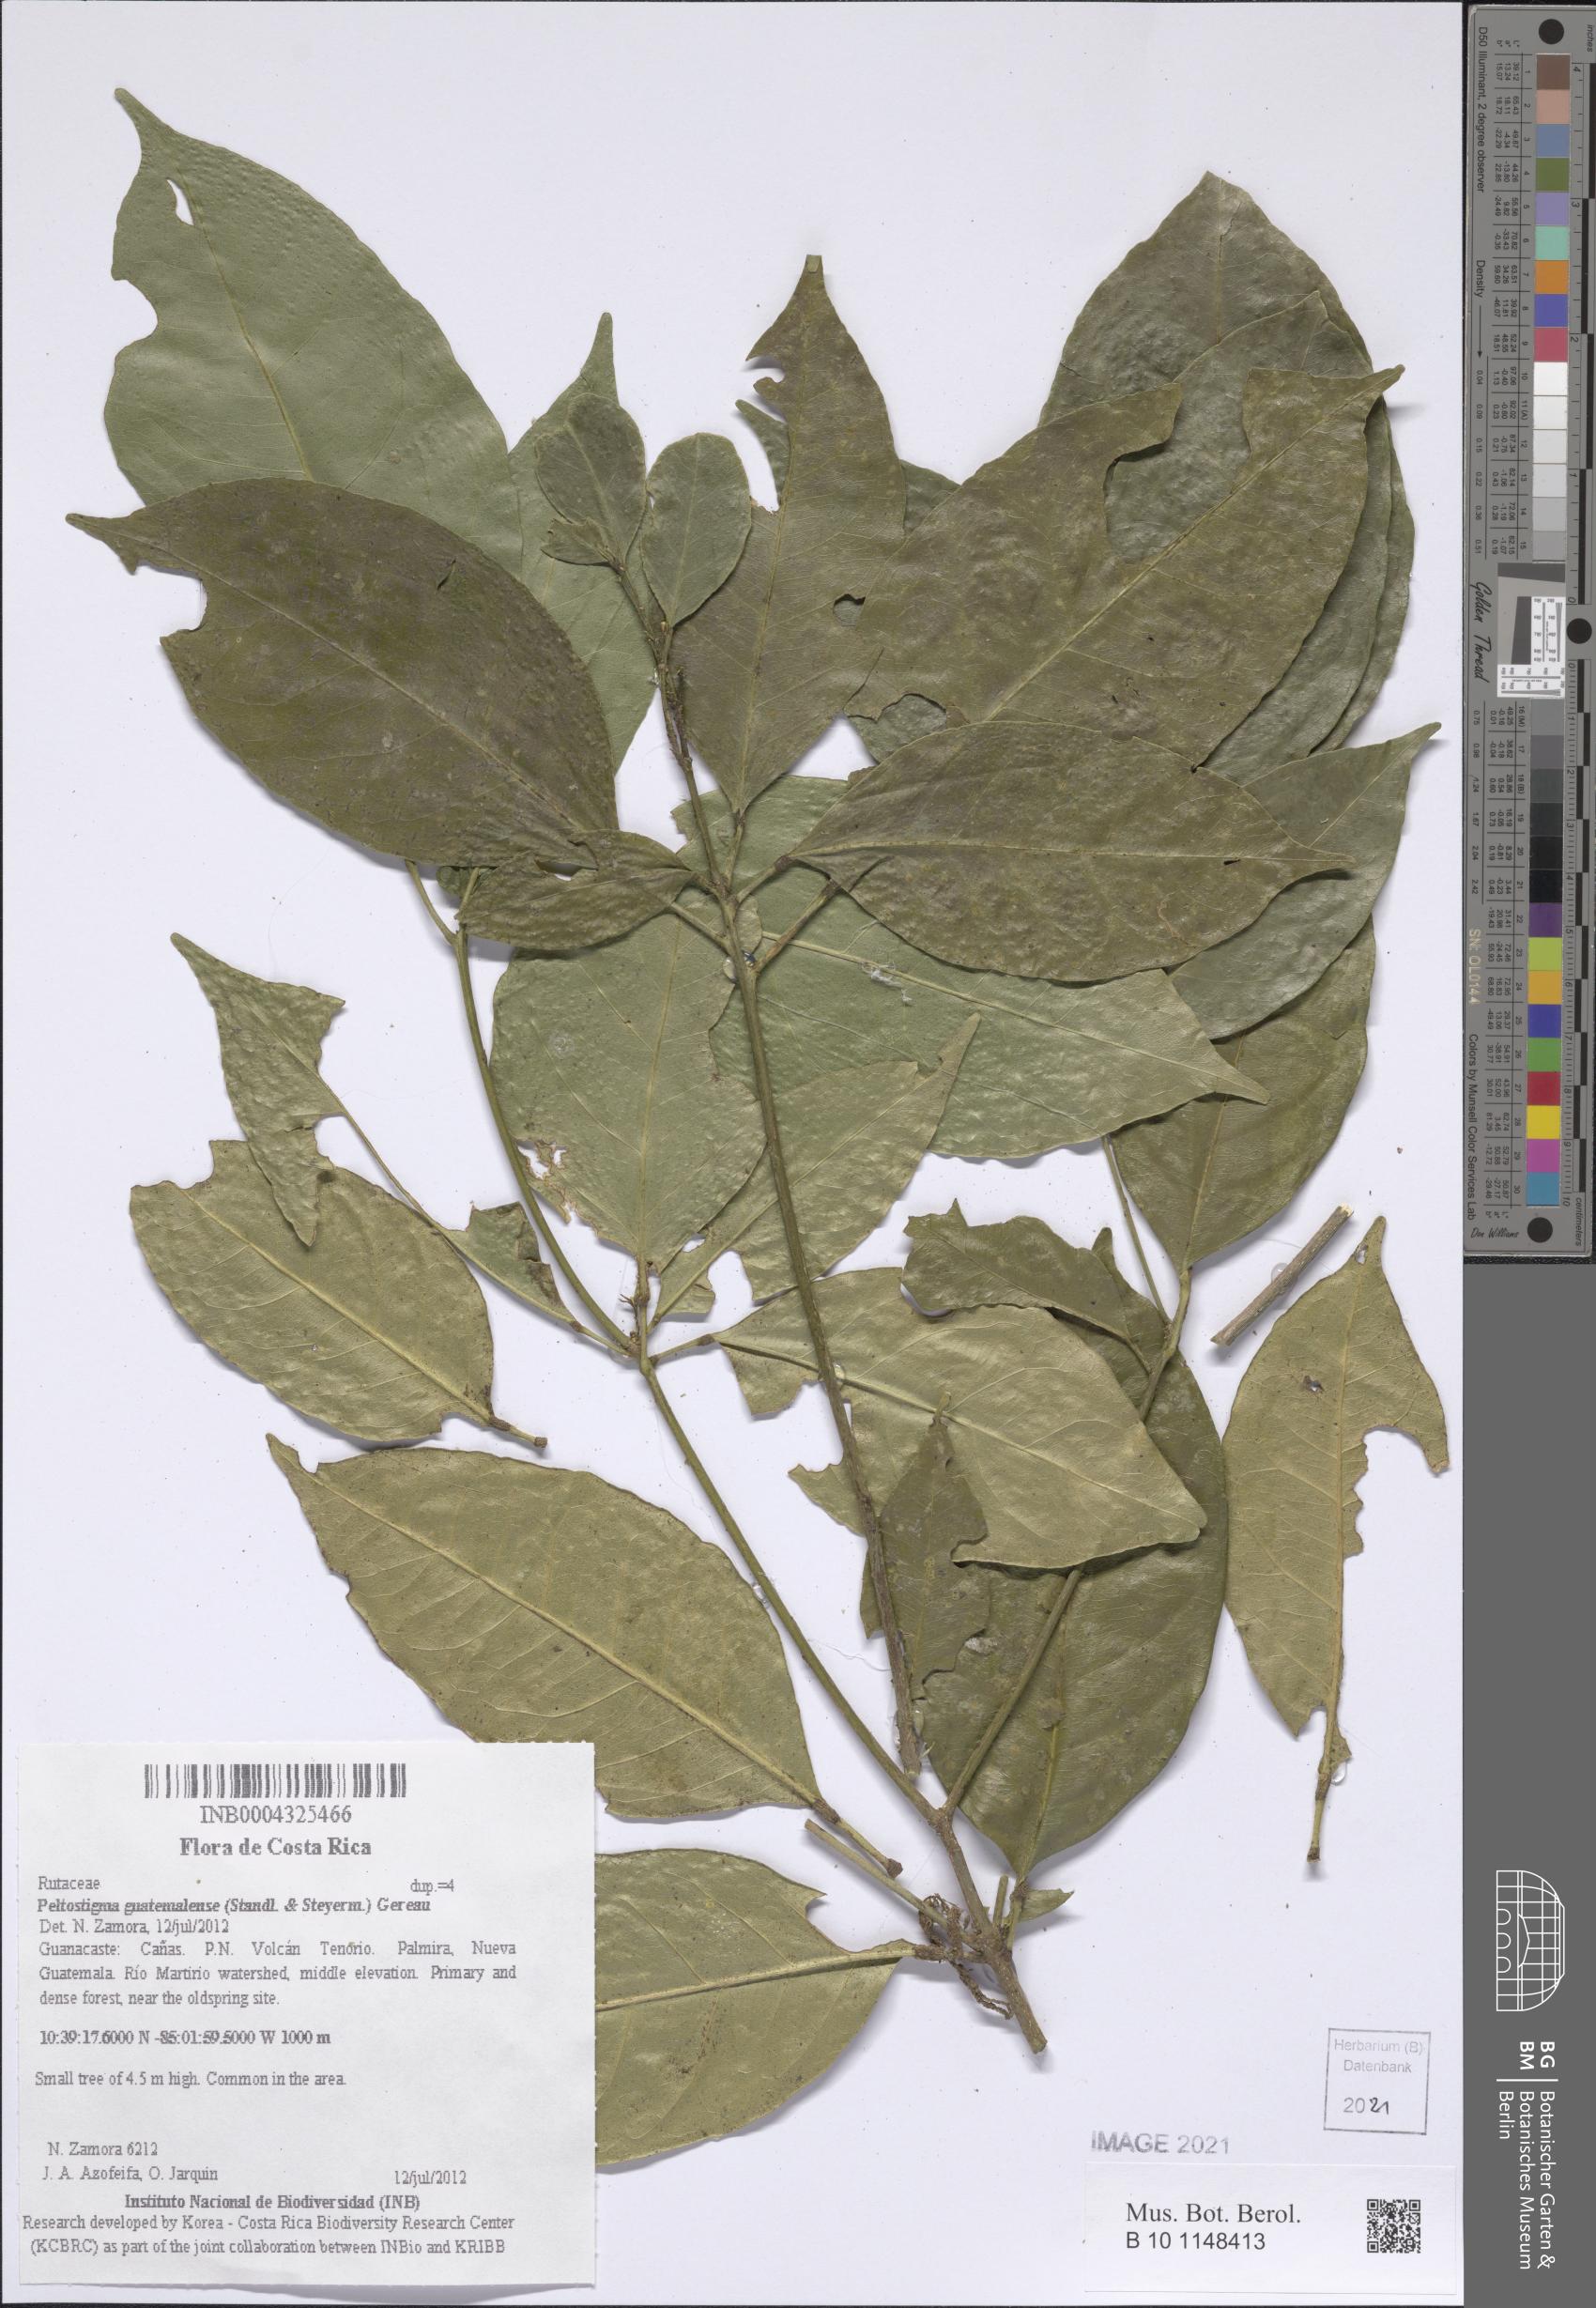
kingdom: Plantae
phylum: Tracheophyta
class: Magnoliopsida
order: Sapindales
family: Rutaceae
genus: Peltostigma
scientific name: Peltostigma guatemalense
